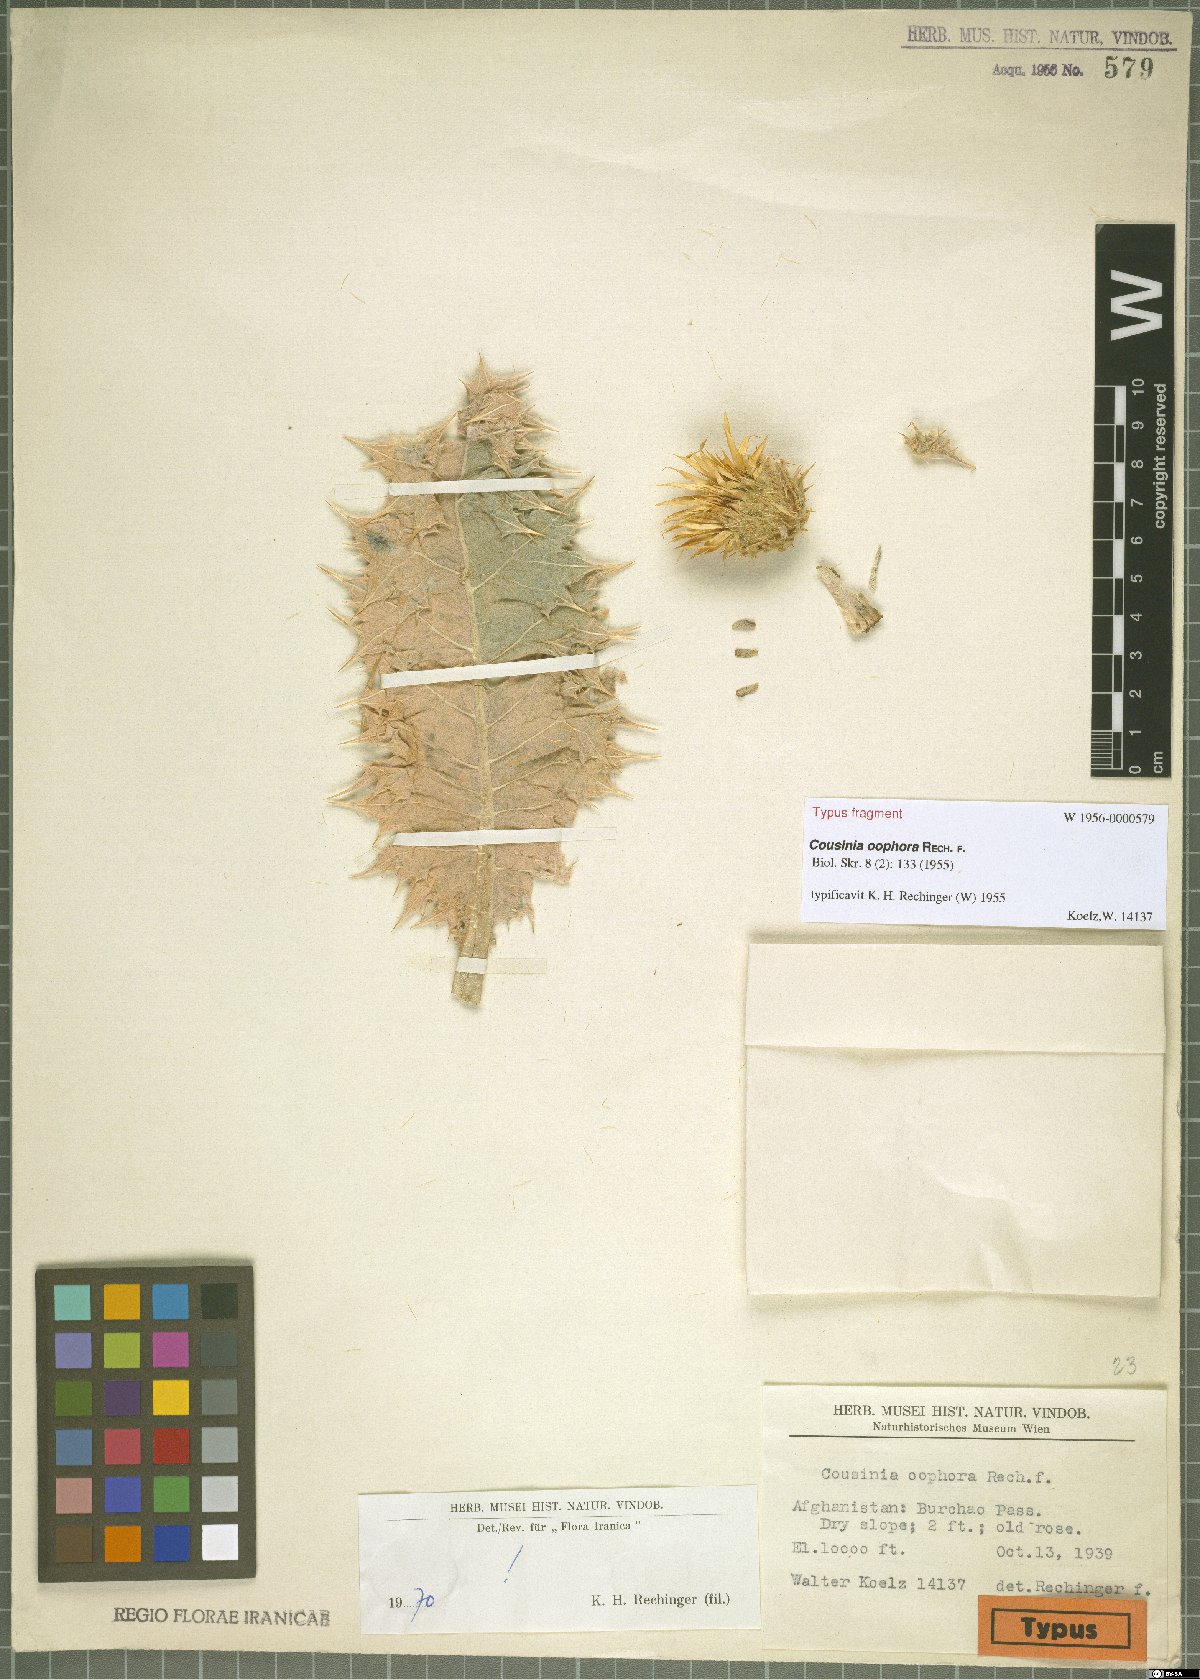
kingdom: Plantae
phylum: Tracheophyta
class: Magnoliopsida
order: Asterales
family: Asteraceae
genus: Cousinia
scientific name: Cousinia oophora
